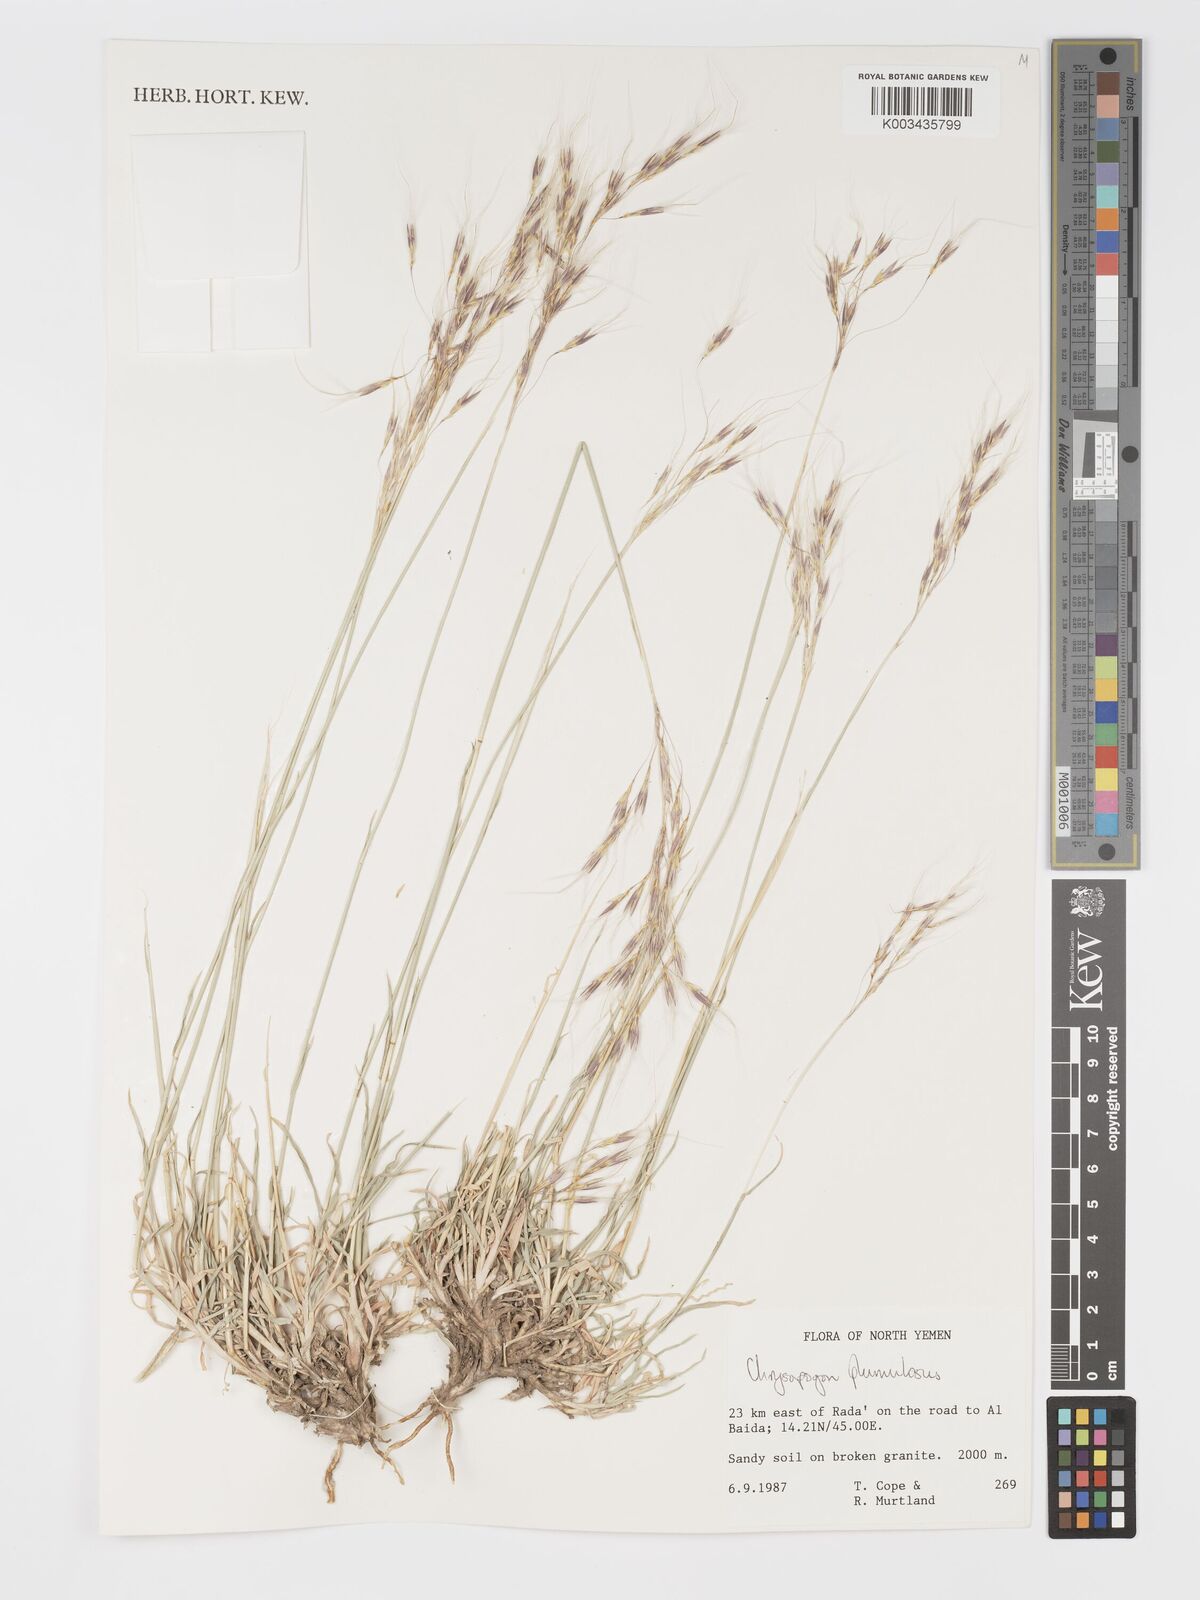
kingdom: Plantae
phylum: Tracheophyta
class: Liliopsida
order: Poales
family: Poaceae
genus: Chrysopogon
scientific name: Chrysopogon plumulosus
